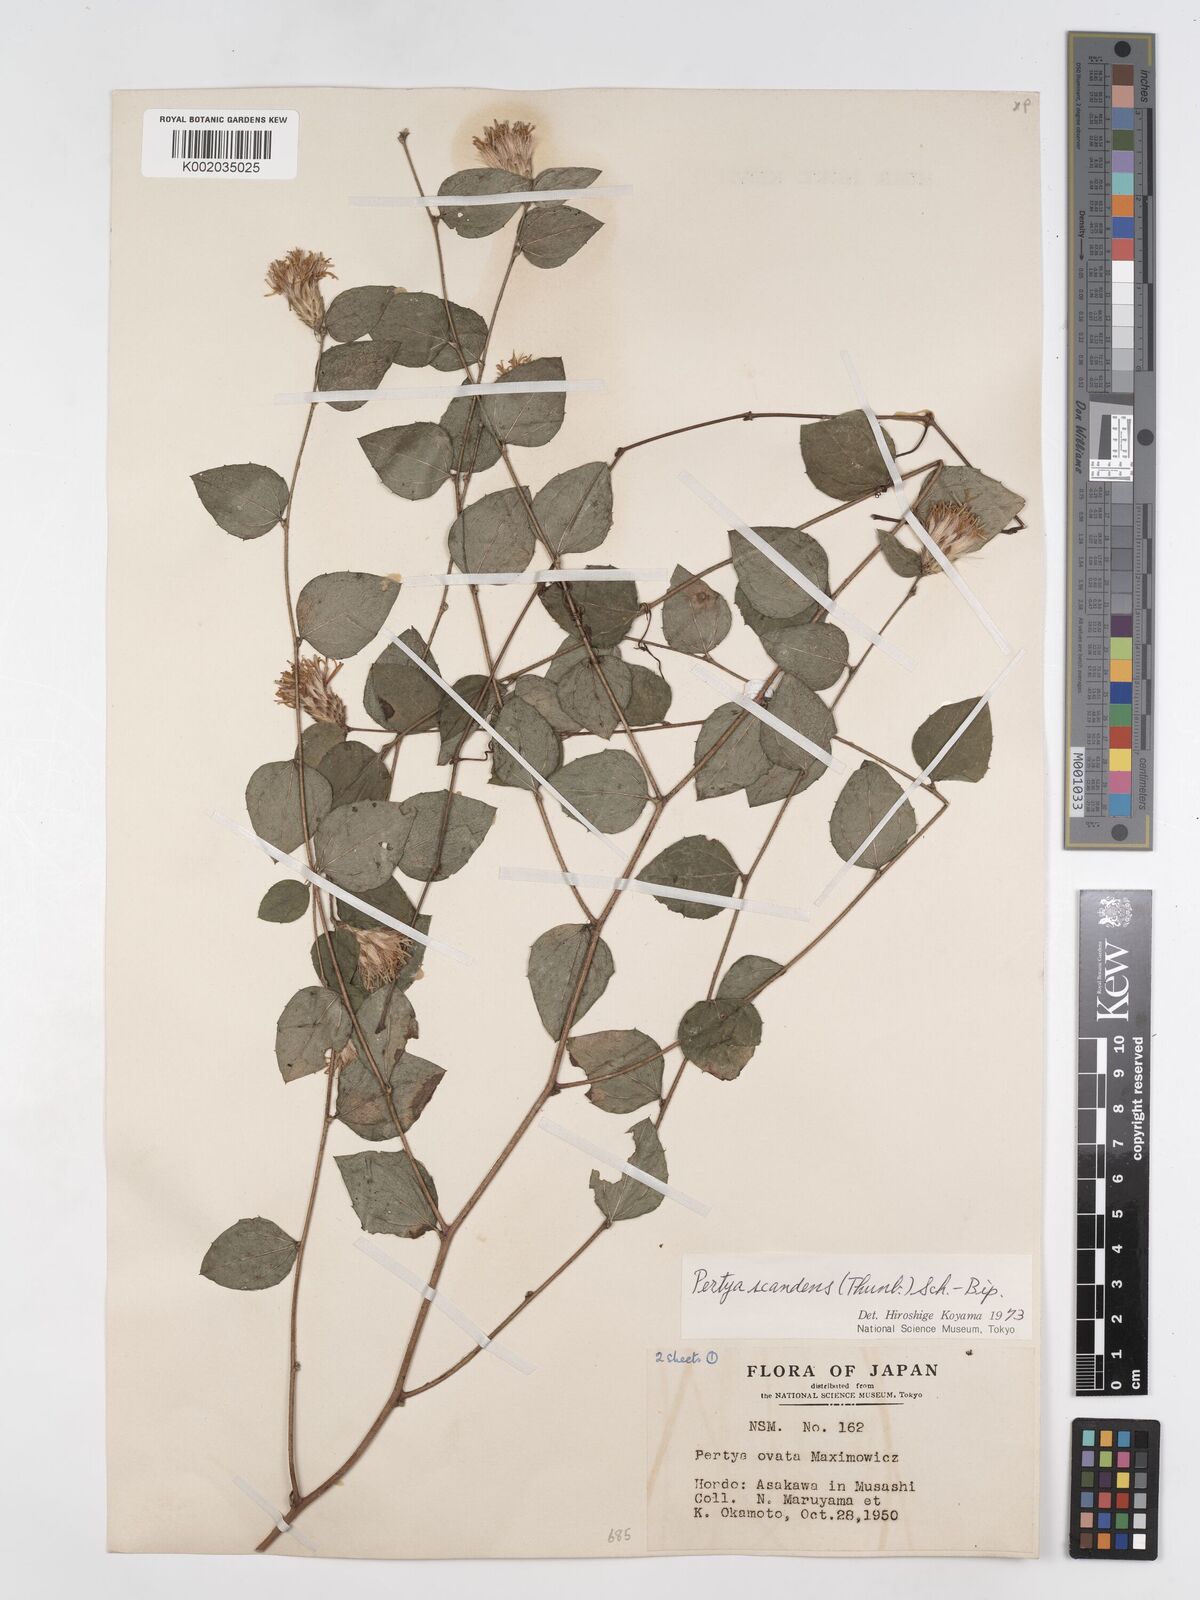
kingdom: Plantae
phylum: Tracheophyta
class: Magnoliopsida
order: Asterales
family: Asteraceae
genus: Pertya
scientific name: Pertya scandens
